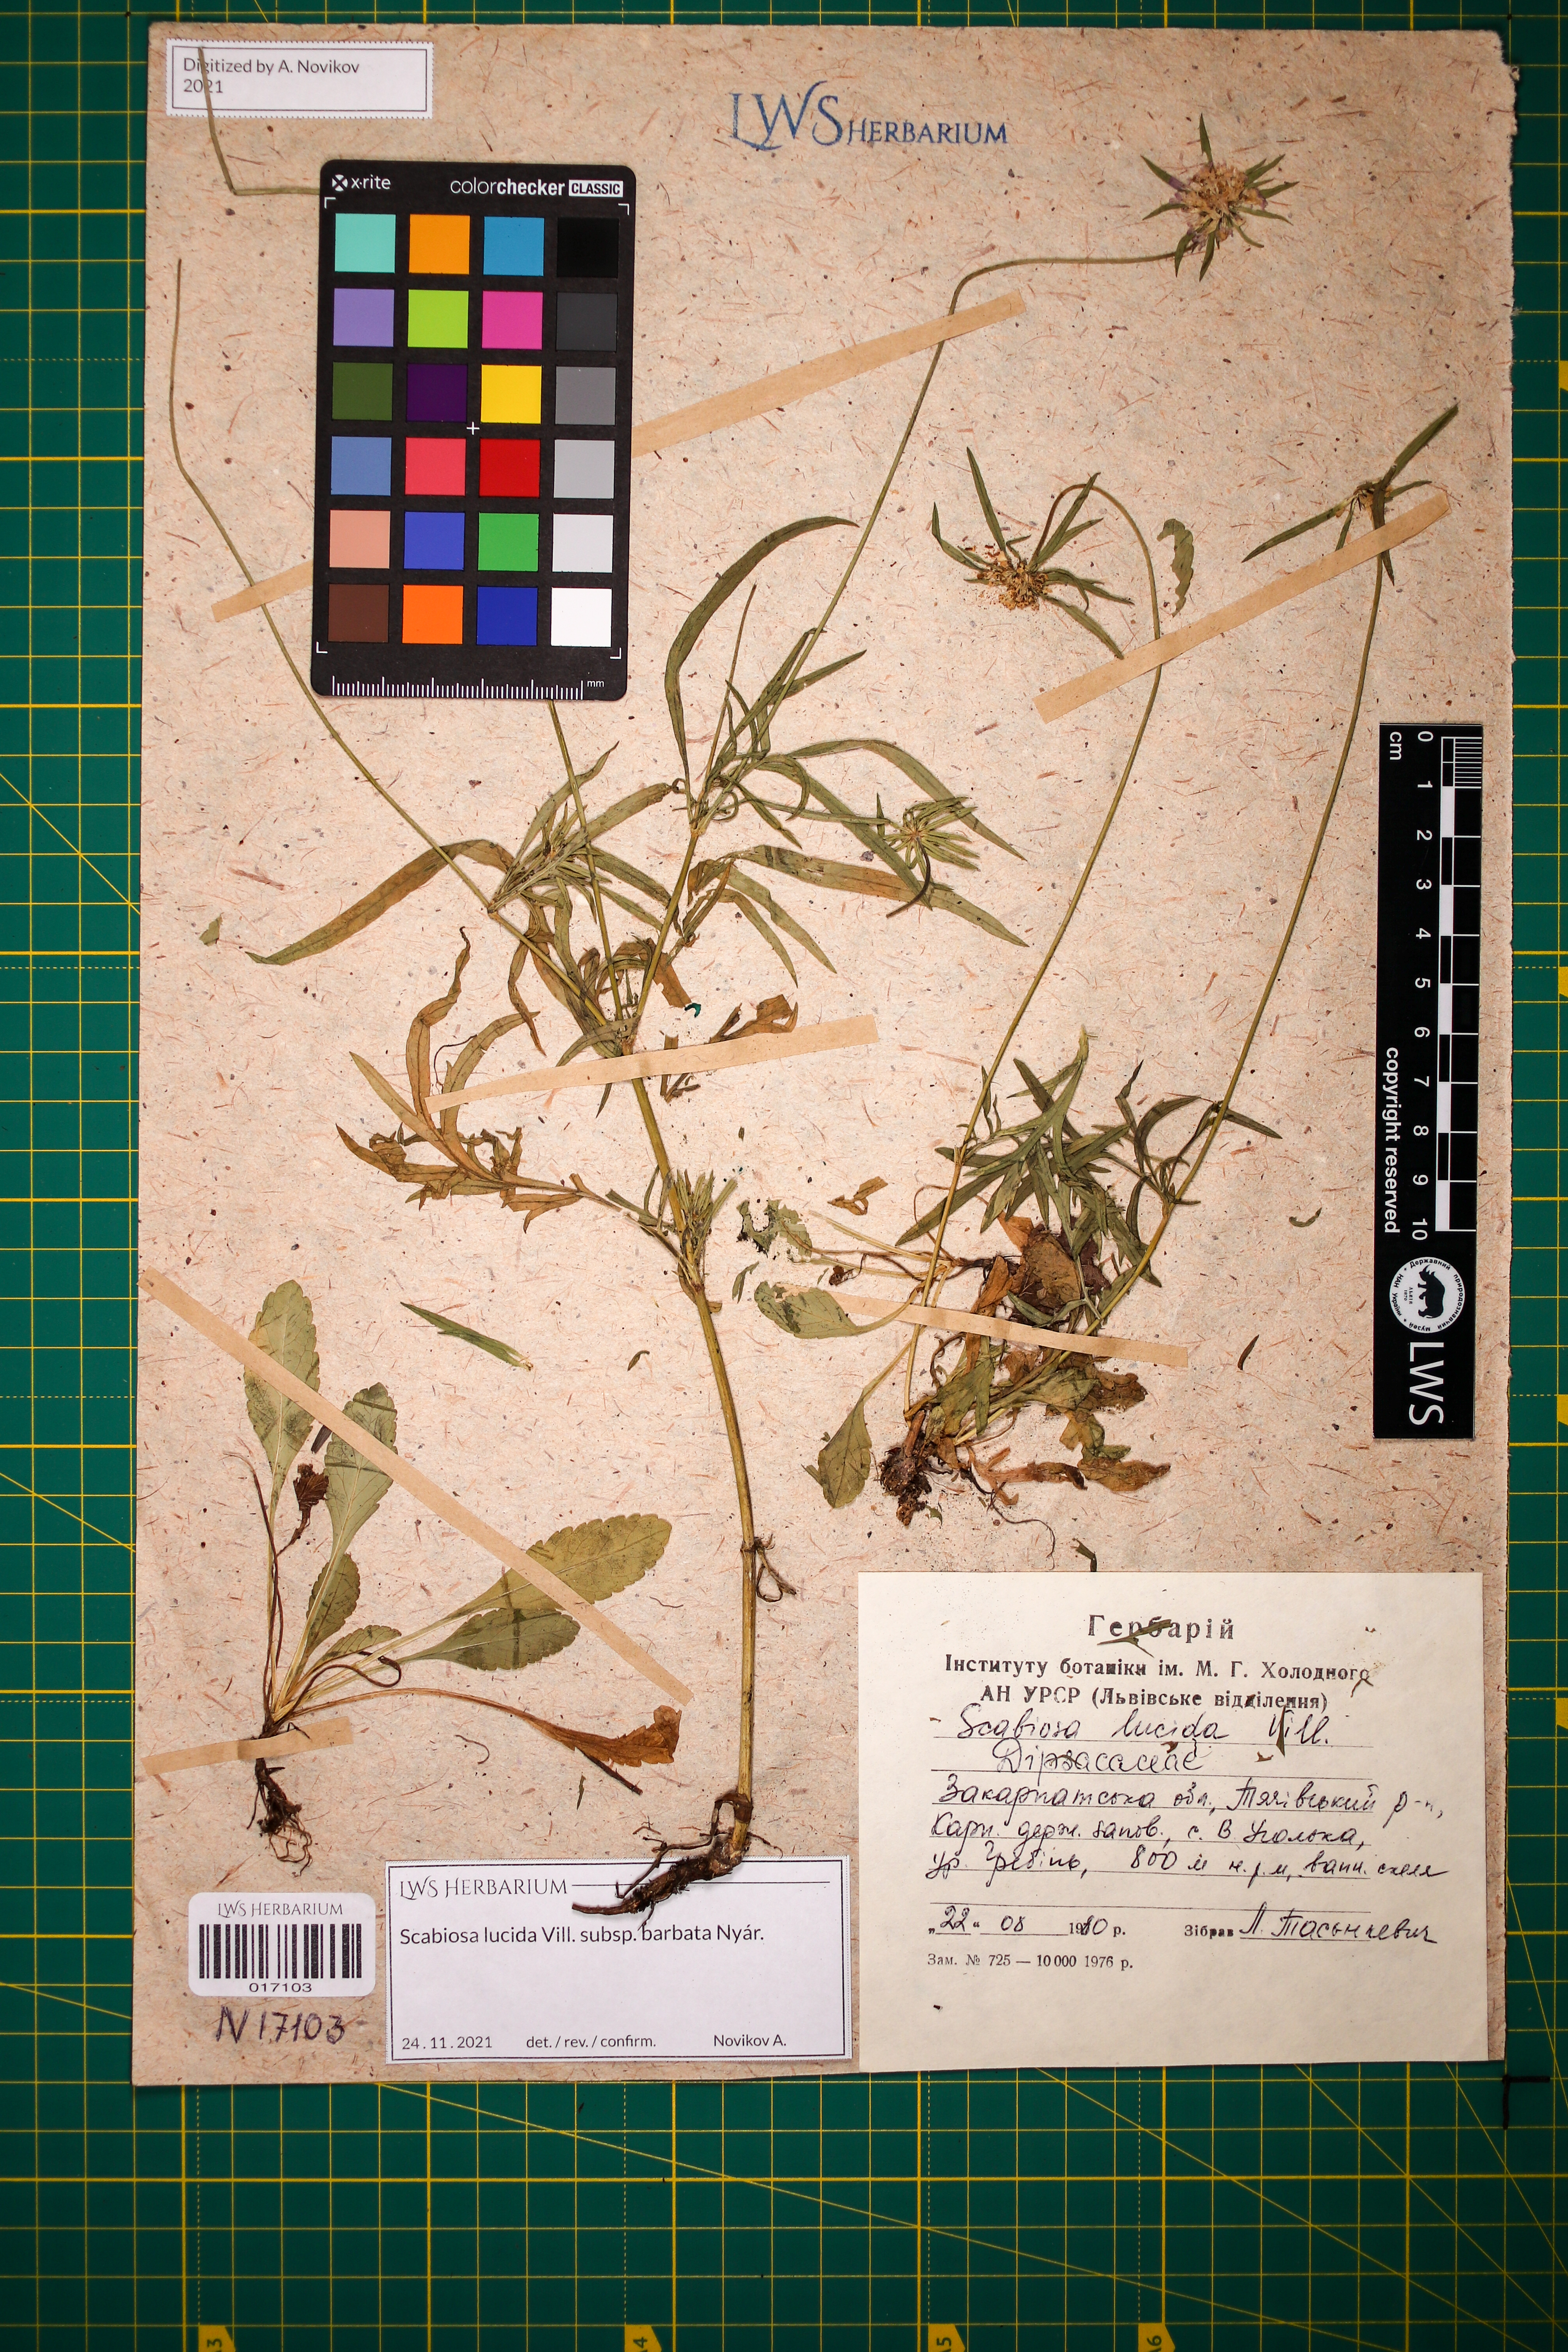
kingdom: Plantae
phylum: Tracheophyta
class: Magnoliopsida
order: Dipsacales
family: Caprifoliaceae
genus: Scabiosa
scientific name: Scabiosa lucida
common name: Shining scabious
